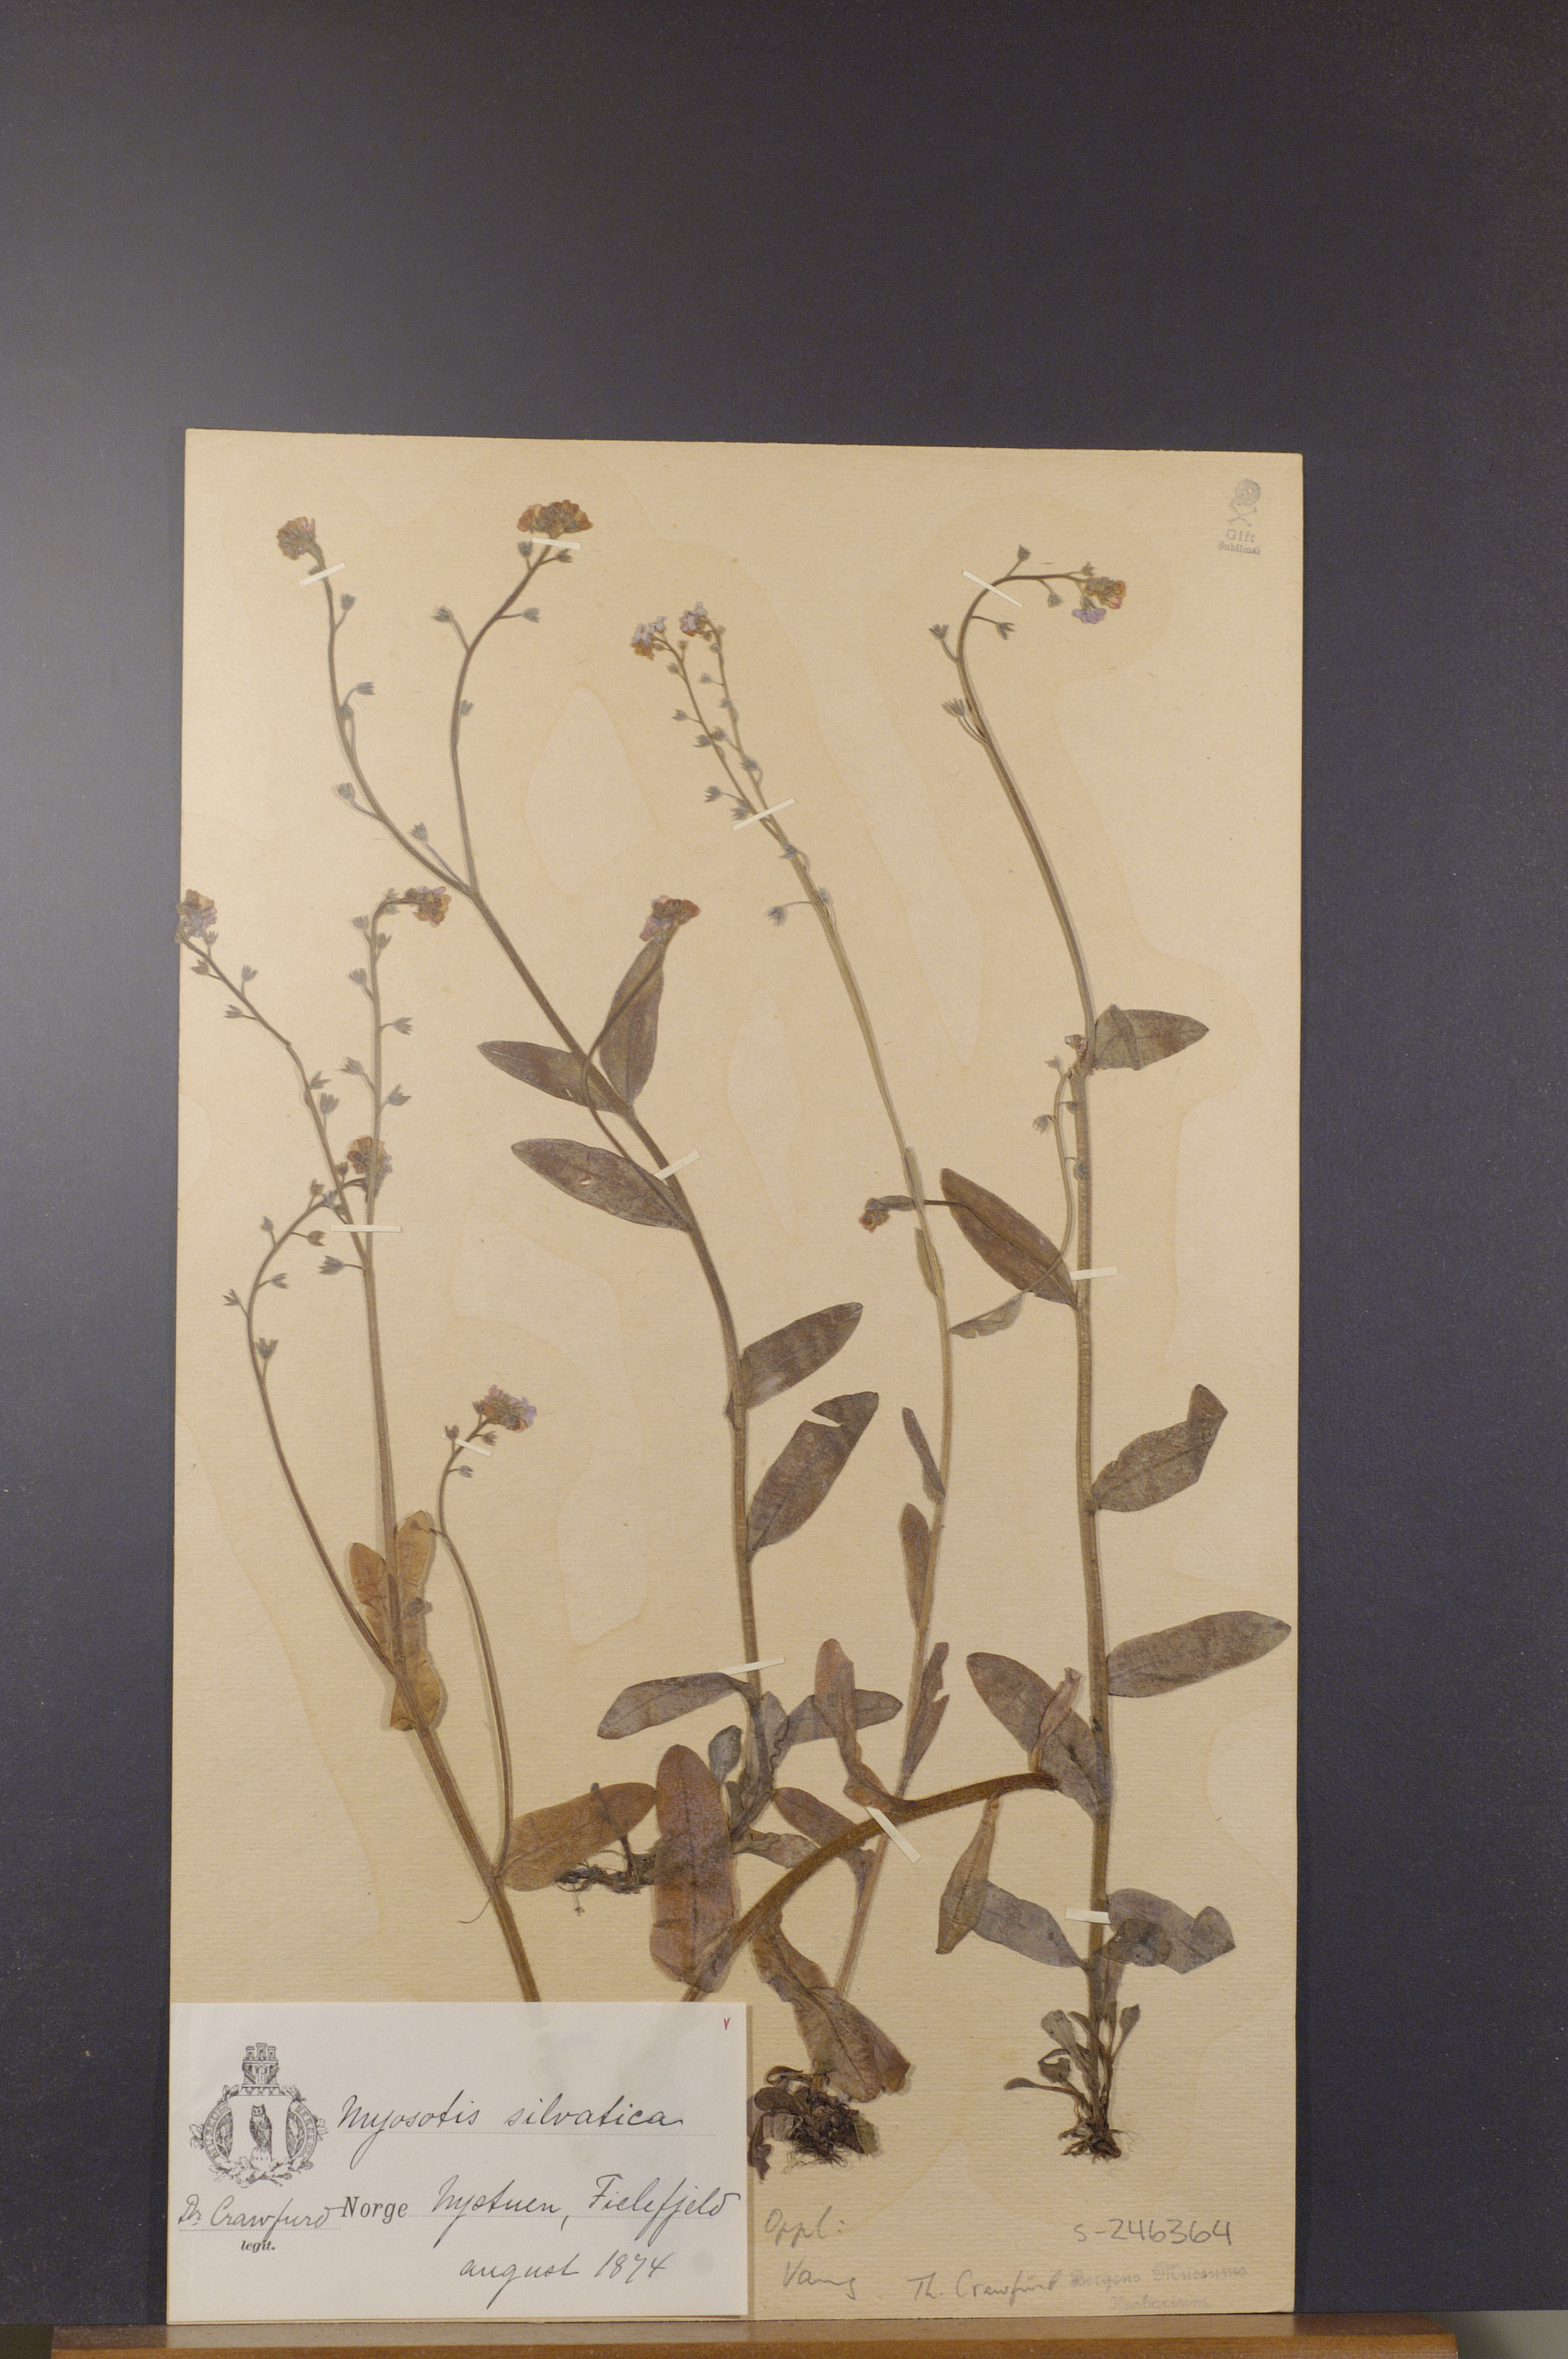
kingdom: Plantae
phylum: Tracheophyta
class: Magnoliopsida
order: Boraginales
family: Boraginaceae
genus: Myosotis
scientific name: Myosotis decumbens
